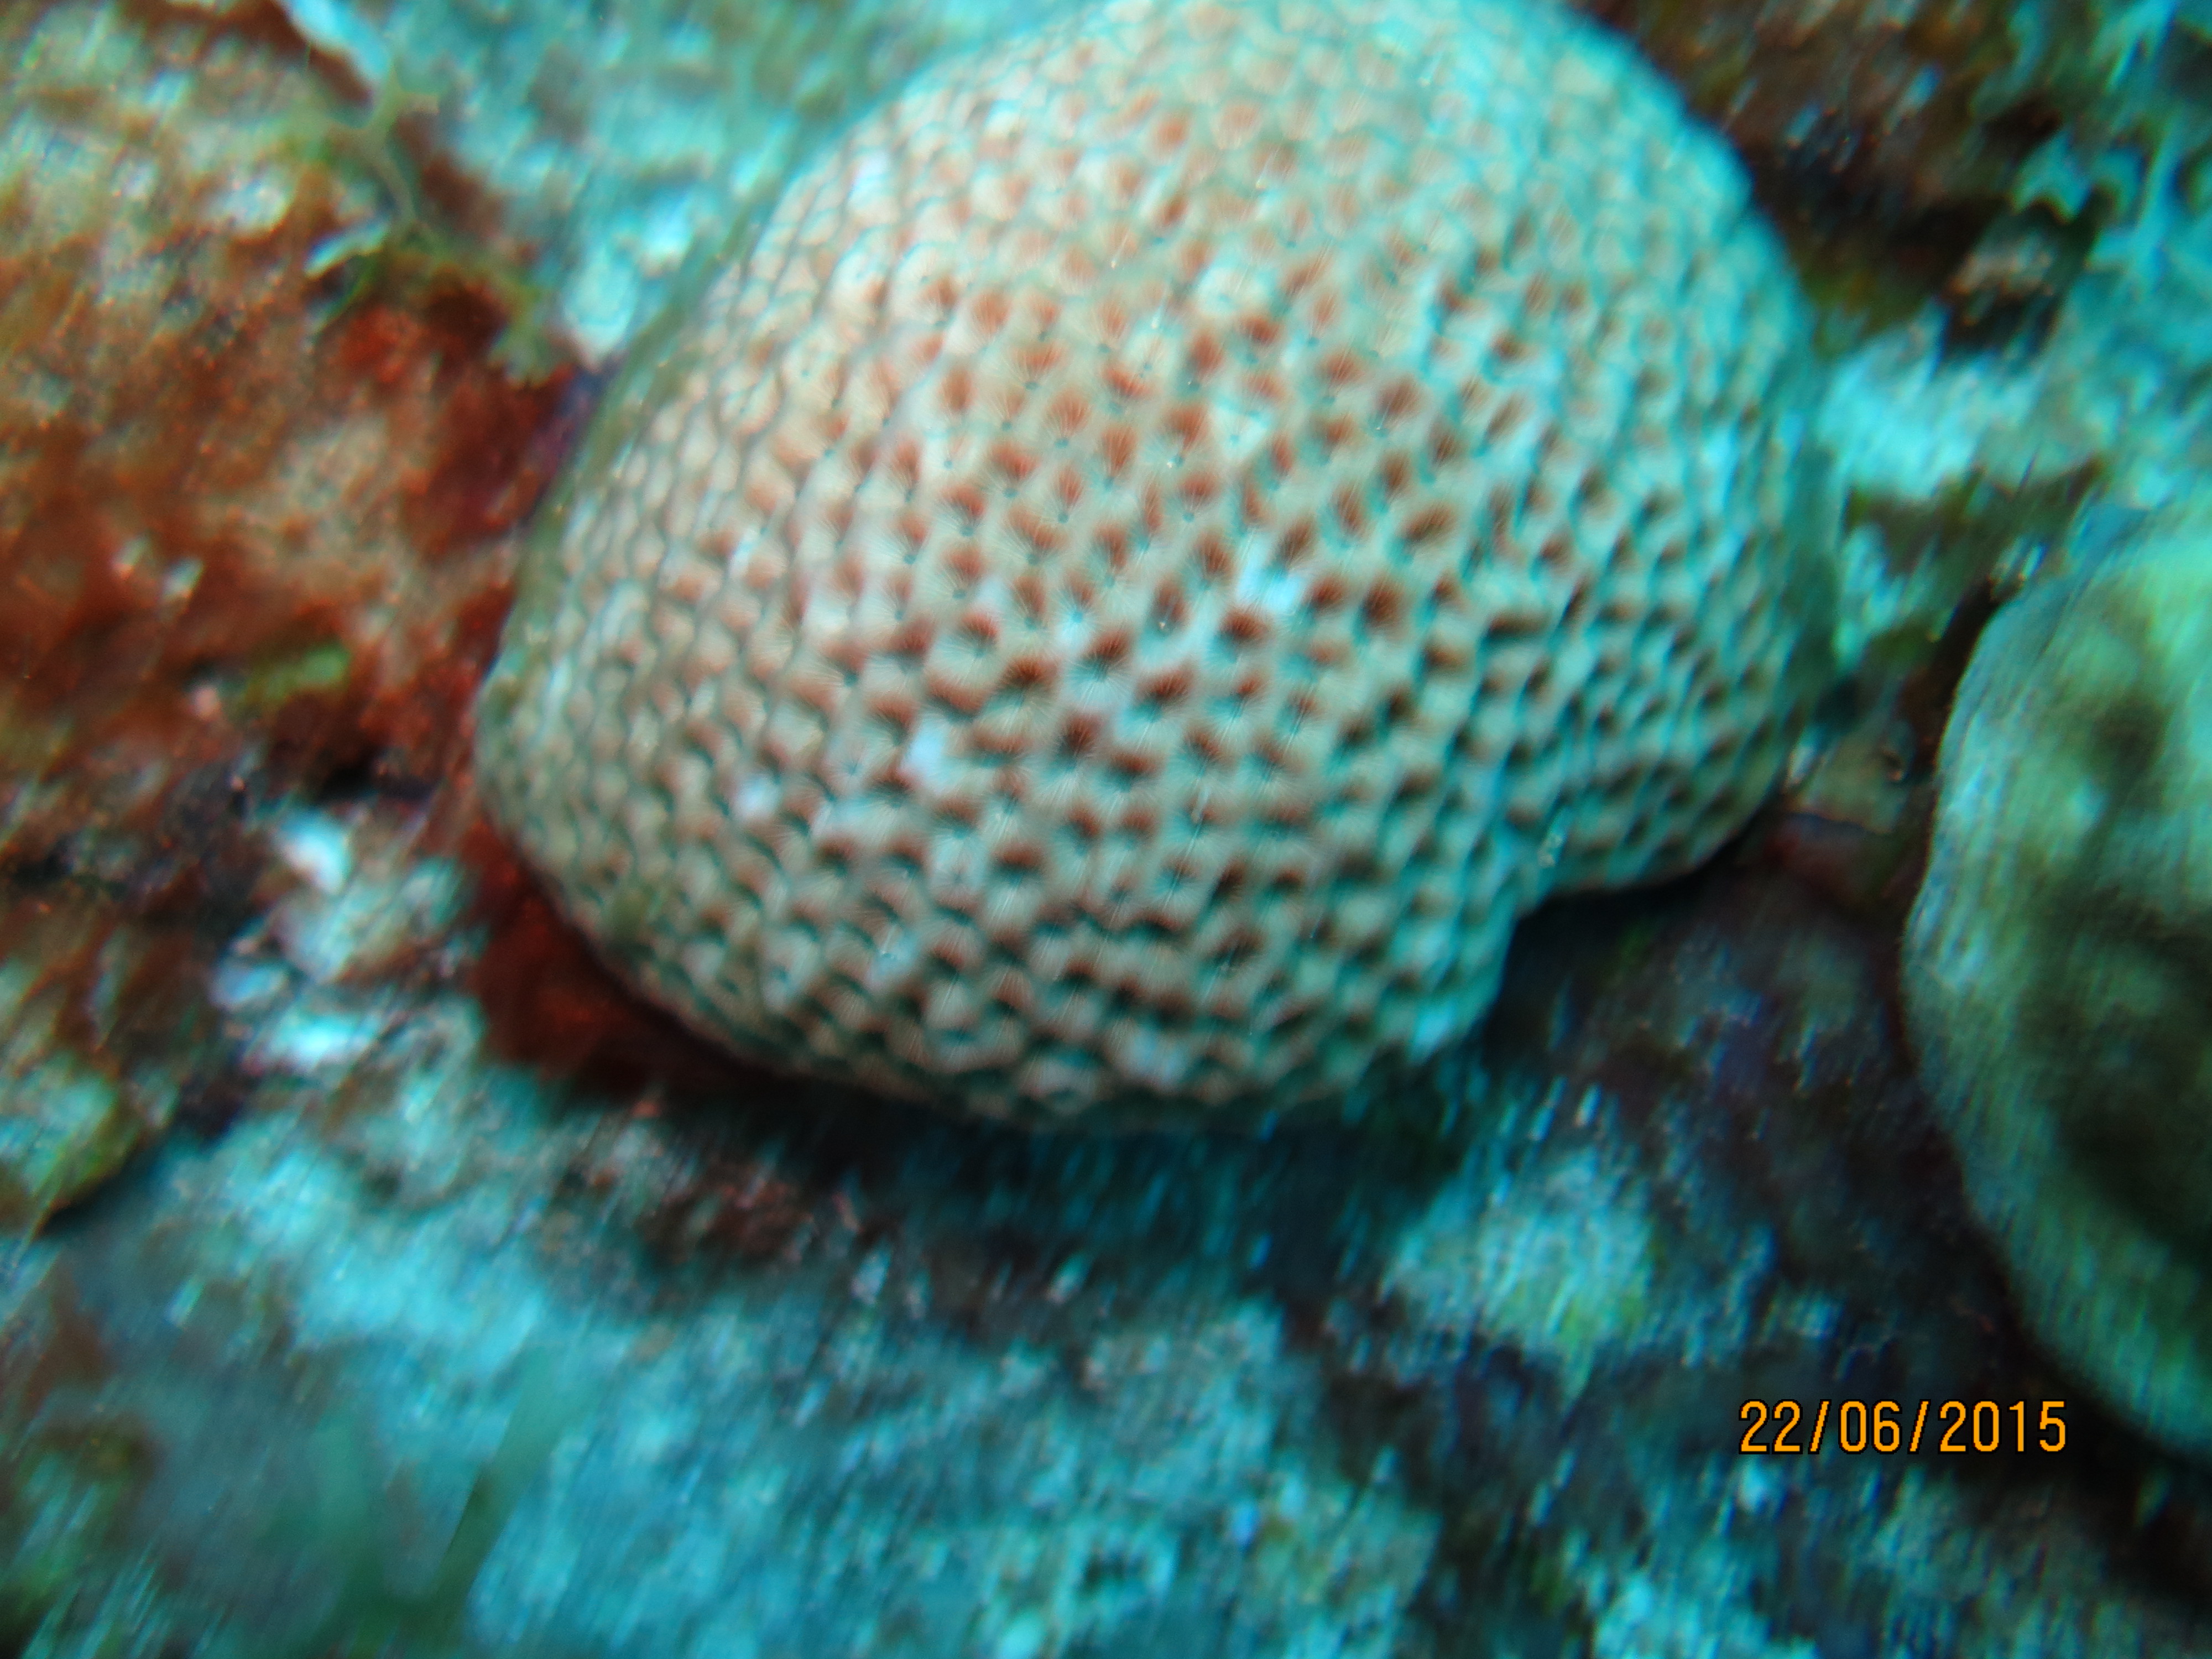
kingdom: Animalia
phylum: Cnidaria
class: Anthozoa
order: Scleractinia
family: Rhizangiidae
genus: Siderastrea
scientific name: Siderastrea siderea
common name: Massive starlet coral
